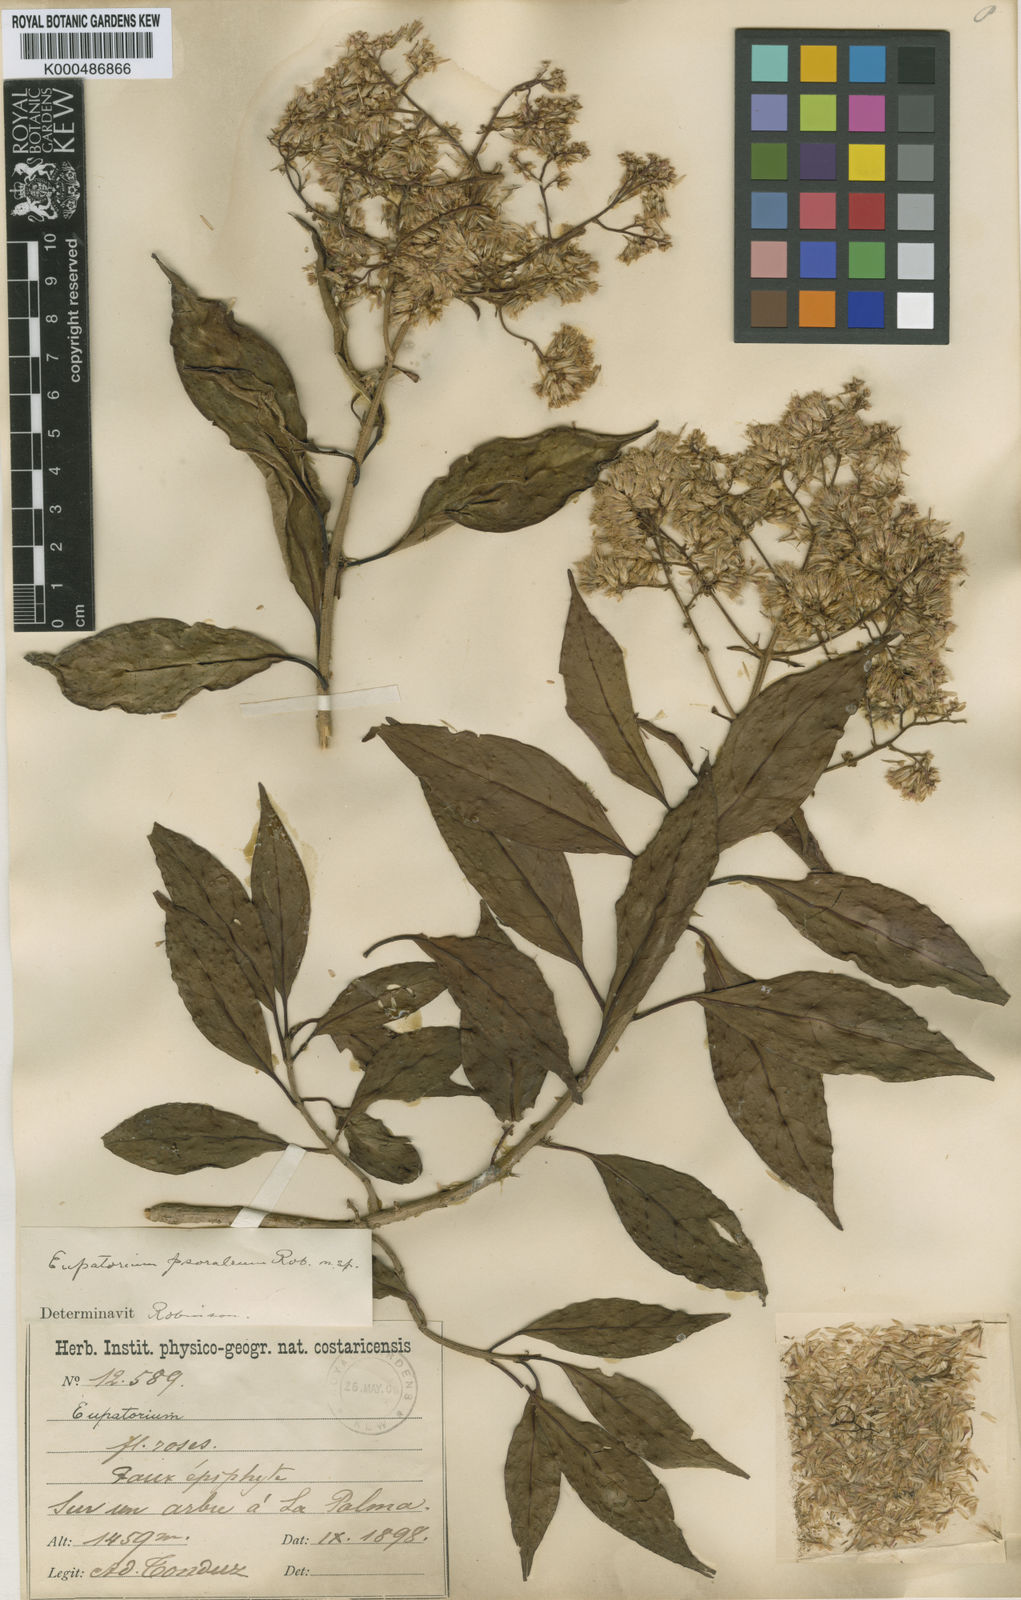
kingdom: Plantae
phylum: Tracheophyta
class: Magnoliopsida
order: Asterales
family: Asteraceae
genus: Neomirandea
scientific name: Neomirandea psoralea
